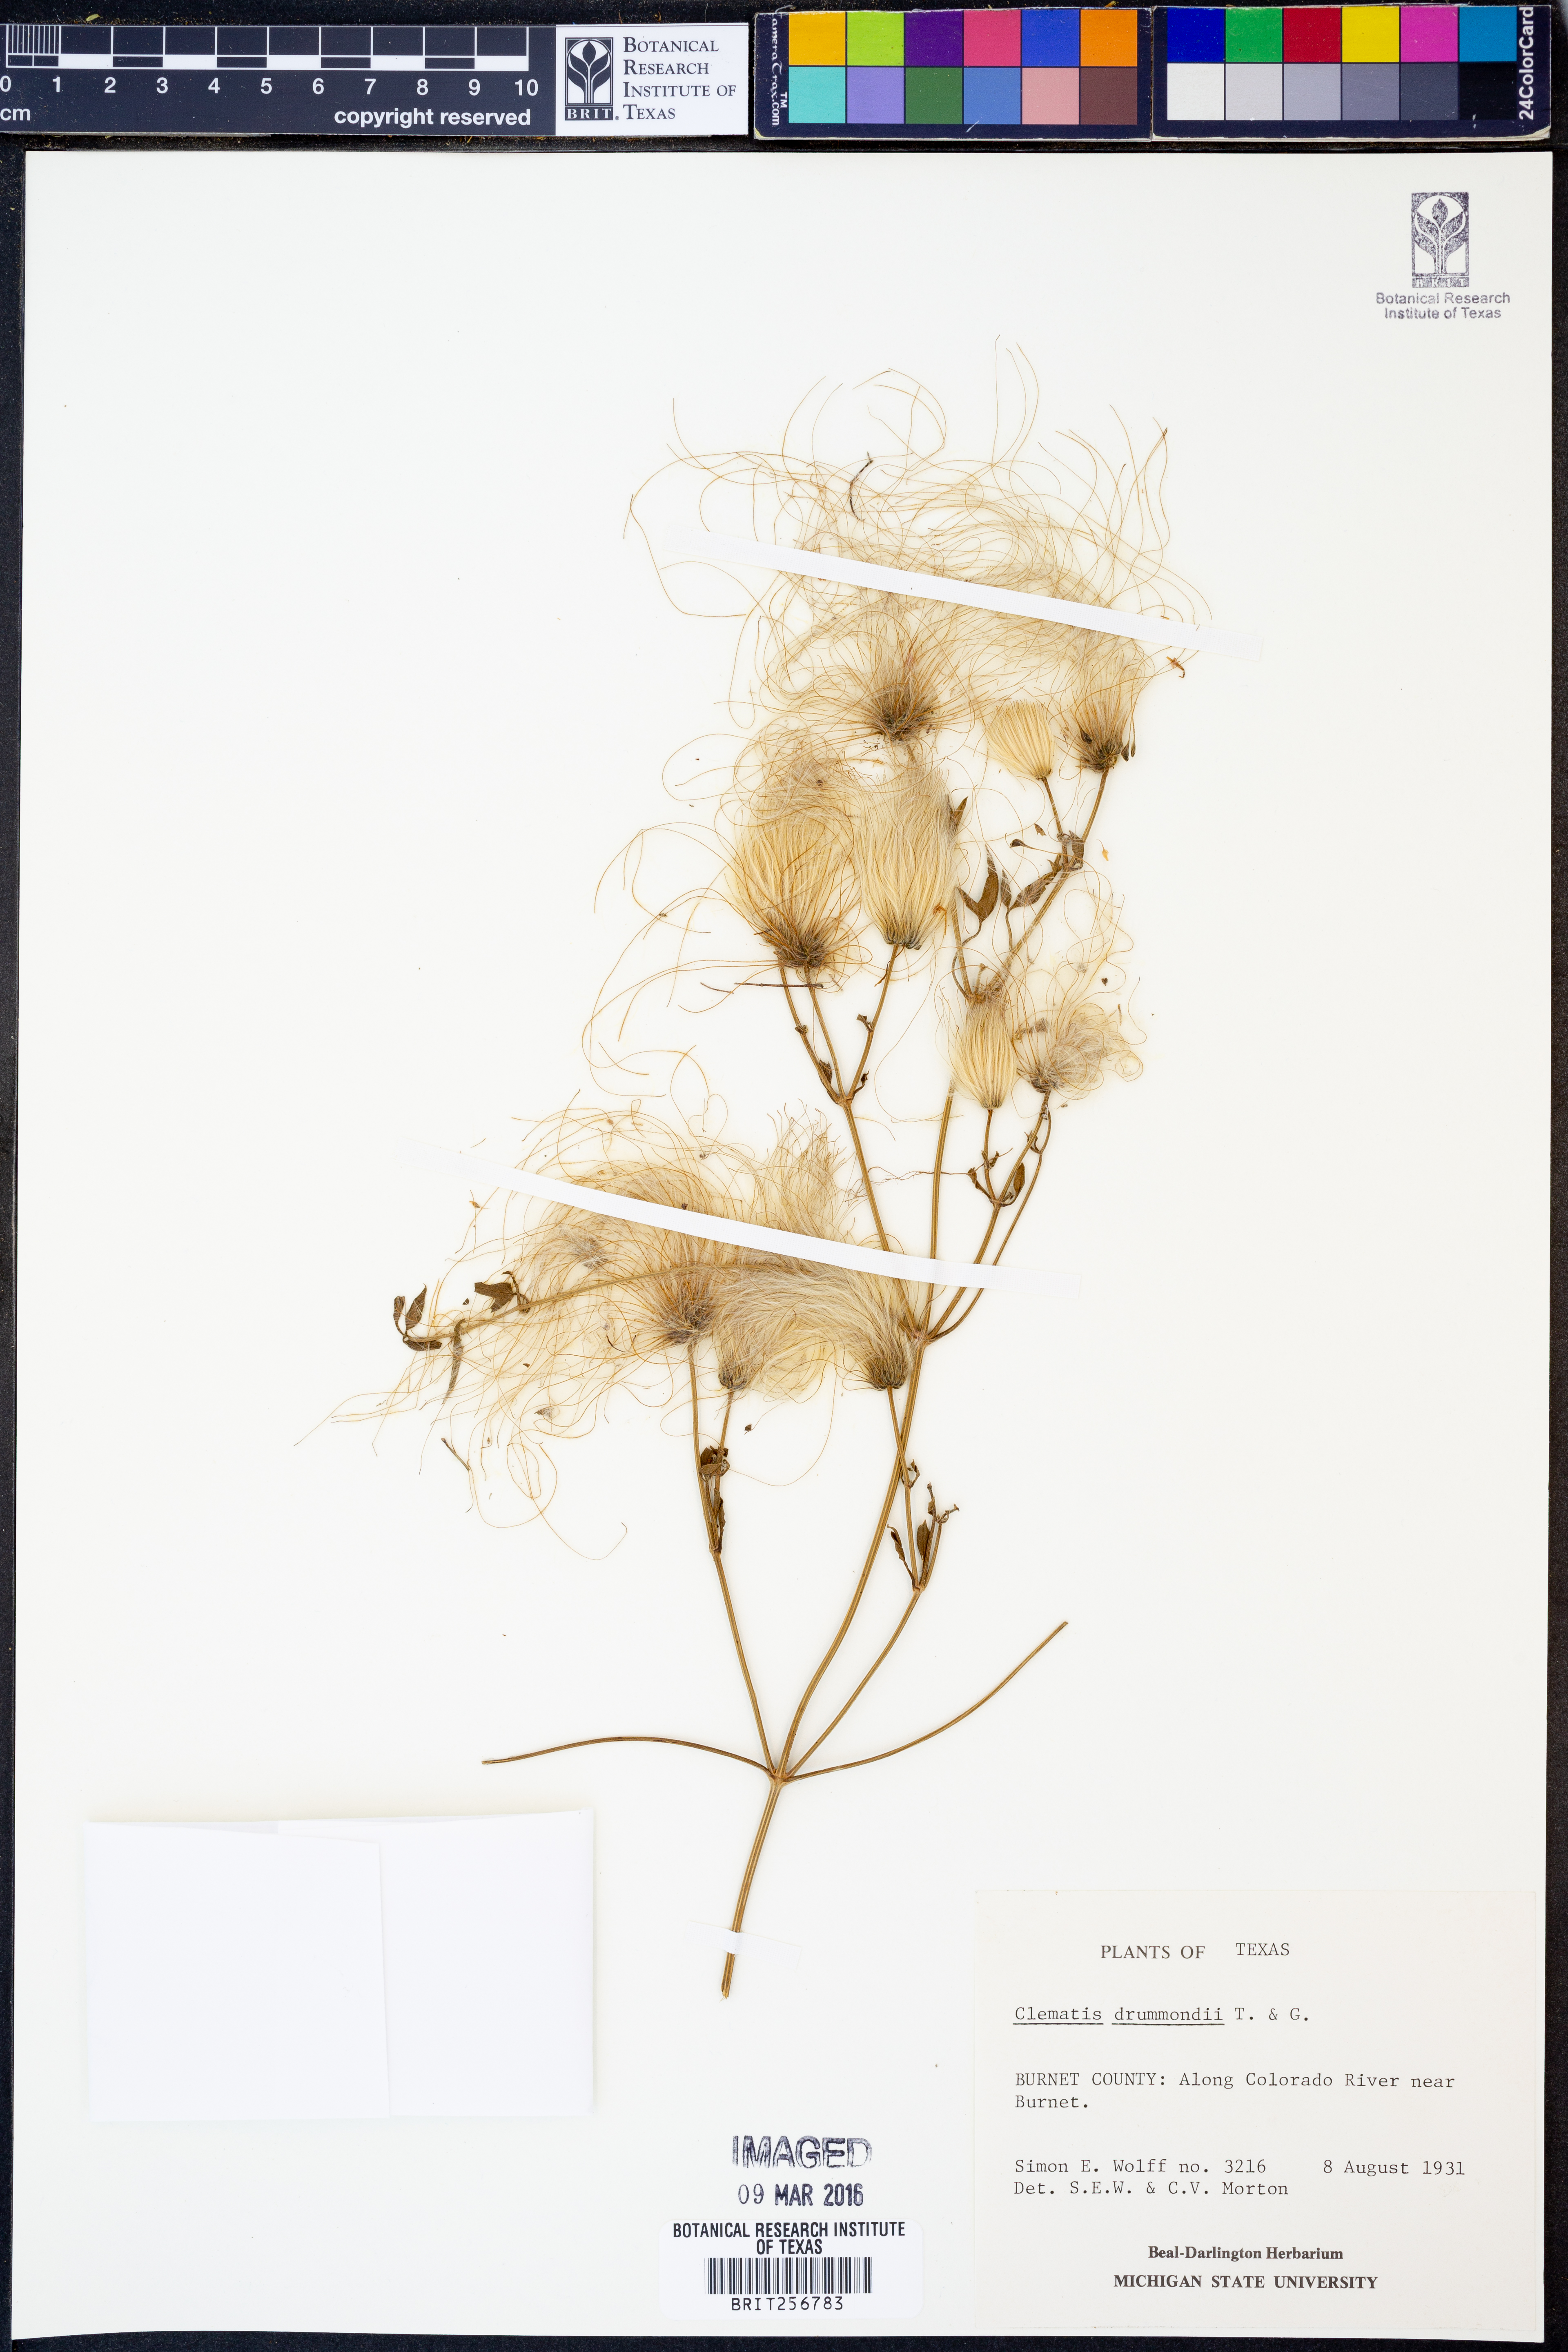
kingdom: Plantae
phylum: Tracheophyta
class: Magnoliopsida
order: Ranunculales
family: Ranunculaceae
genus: Clematis
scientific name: Clematis drummondii
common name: Texas virgin's bower
